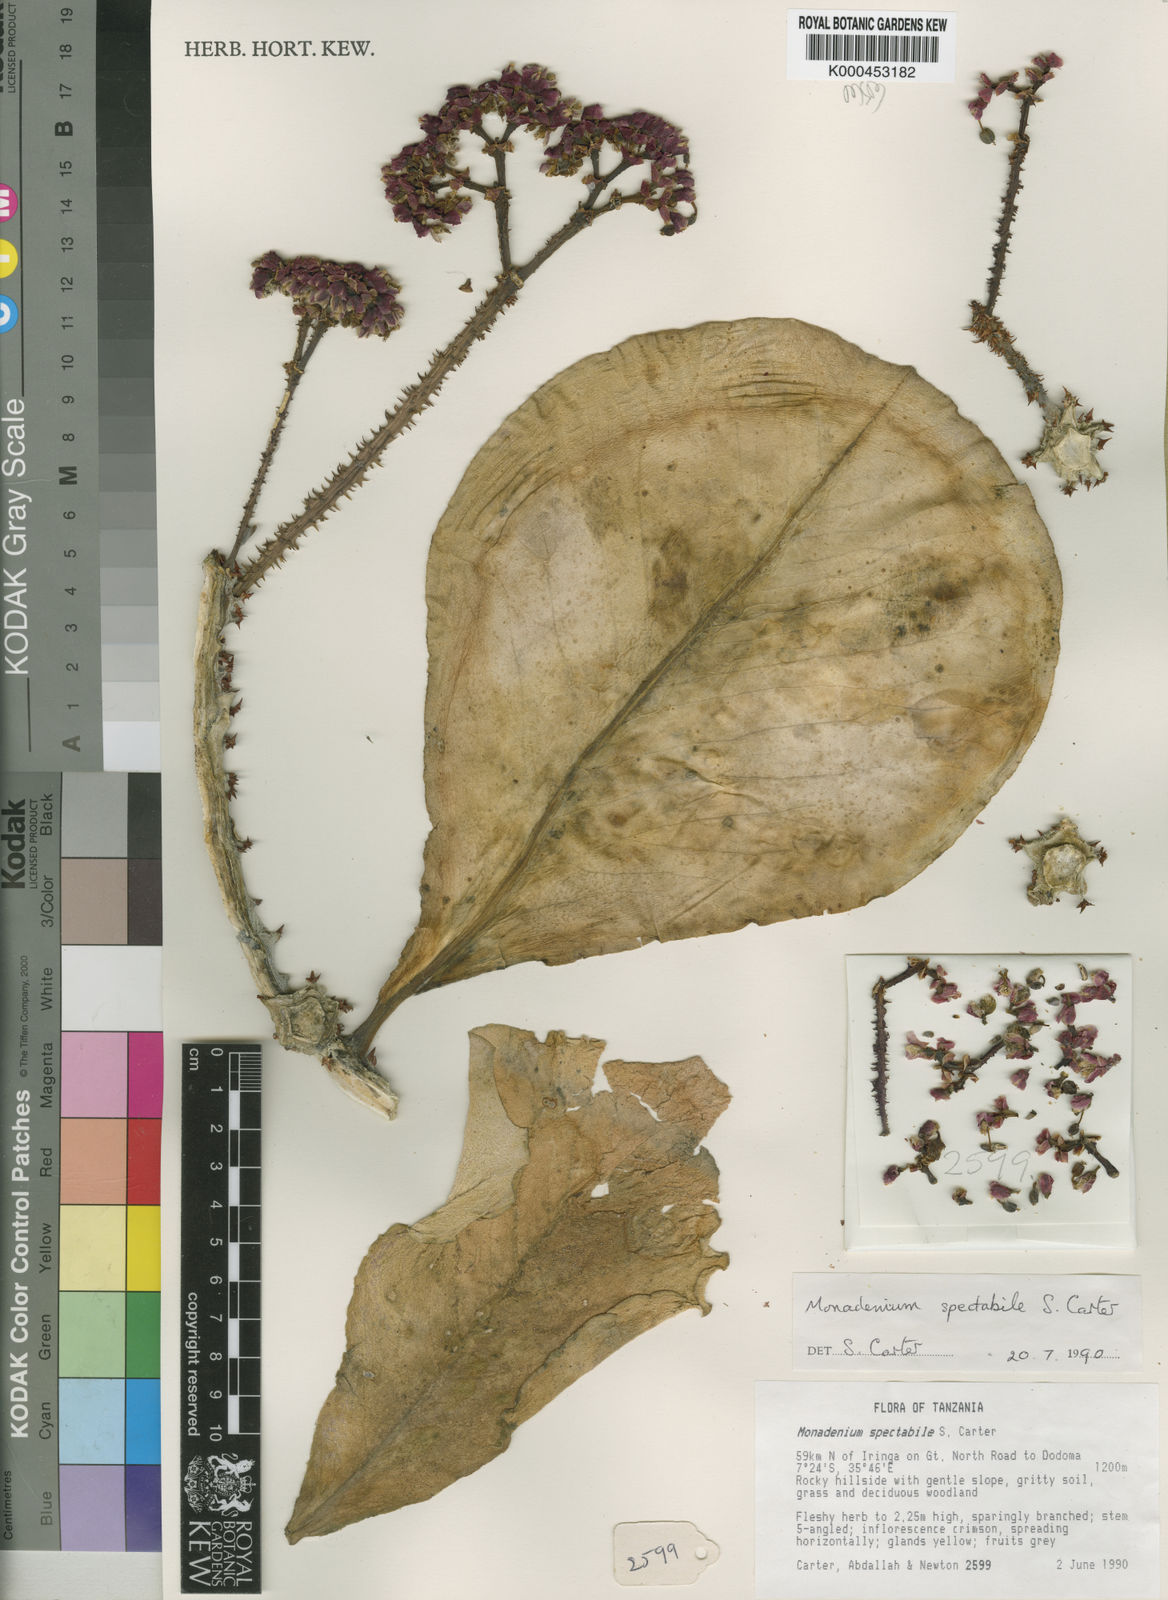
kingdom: Plantae
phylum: Tracheophyta
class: Magnoliopsida
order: Malpighiales
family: Euphorbiaceae
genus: Euphorbia
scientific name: Euphorbia spectabilis
